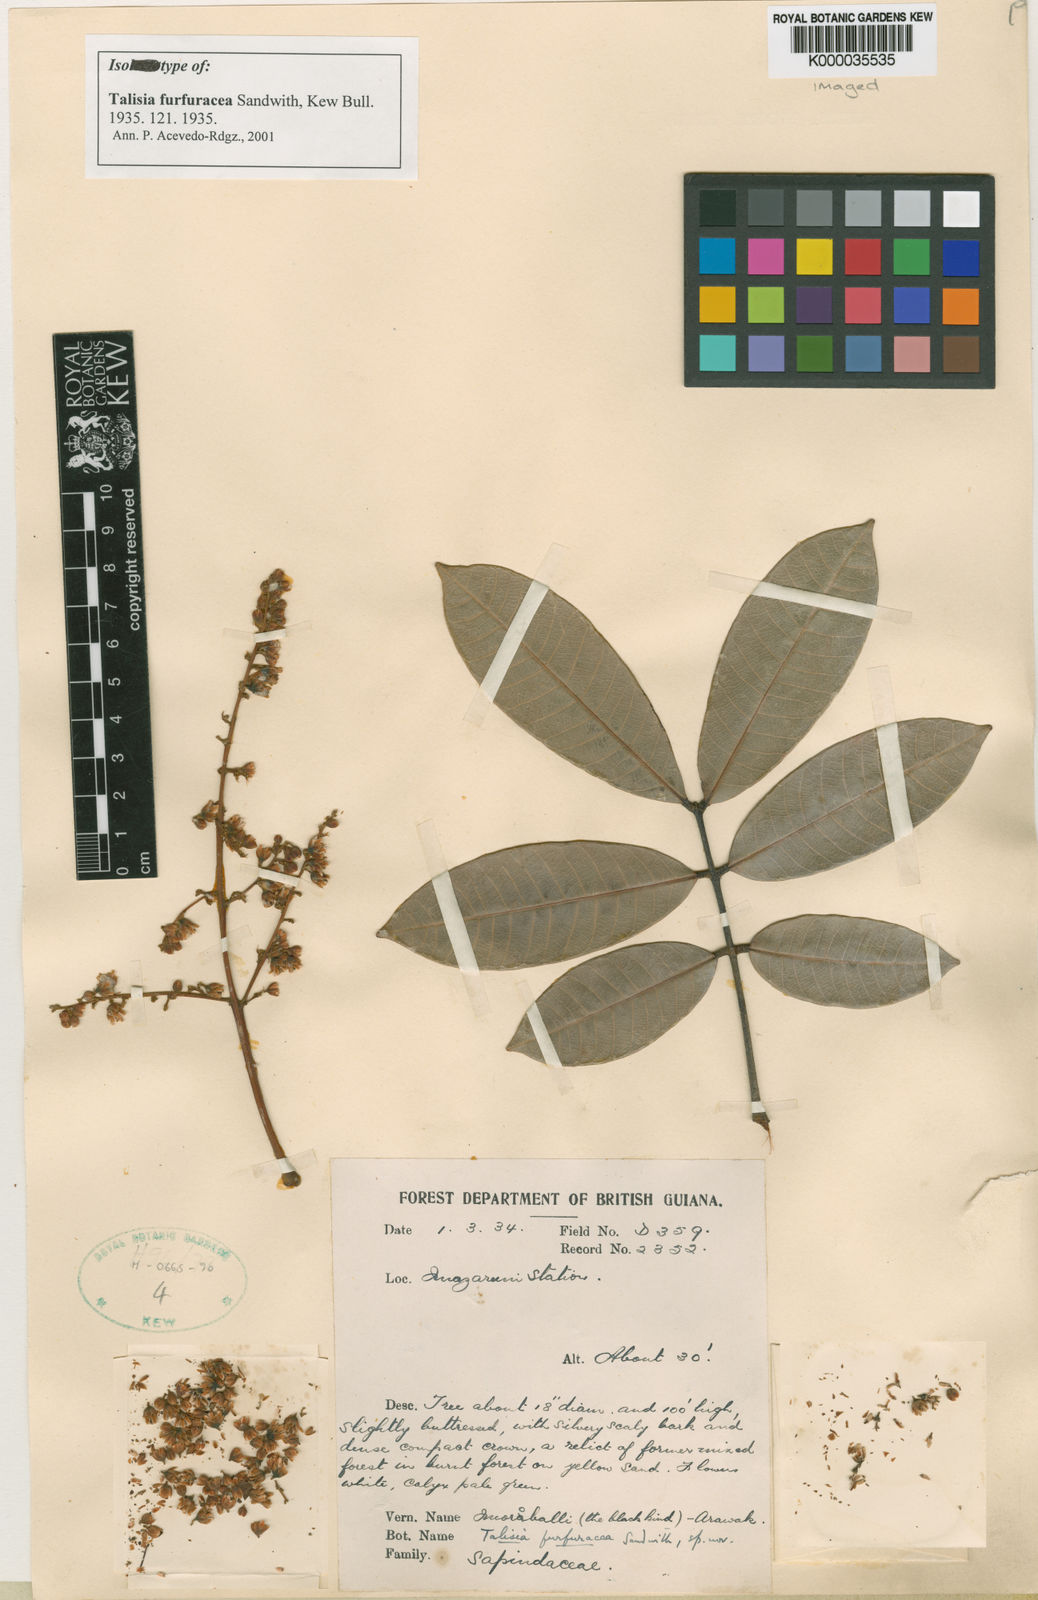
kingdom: Plantae
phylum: Tracheophyta
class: Magnoliopsida
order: Sapindales
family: Sapindaceae
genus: Talisia
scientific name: Talisia furfuracea
